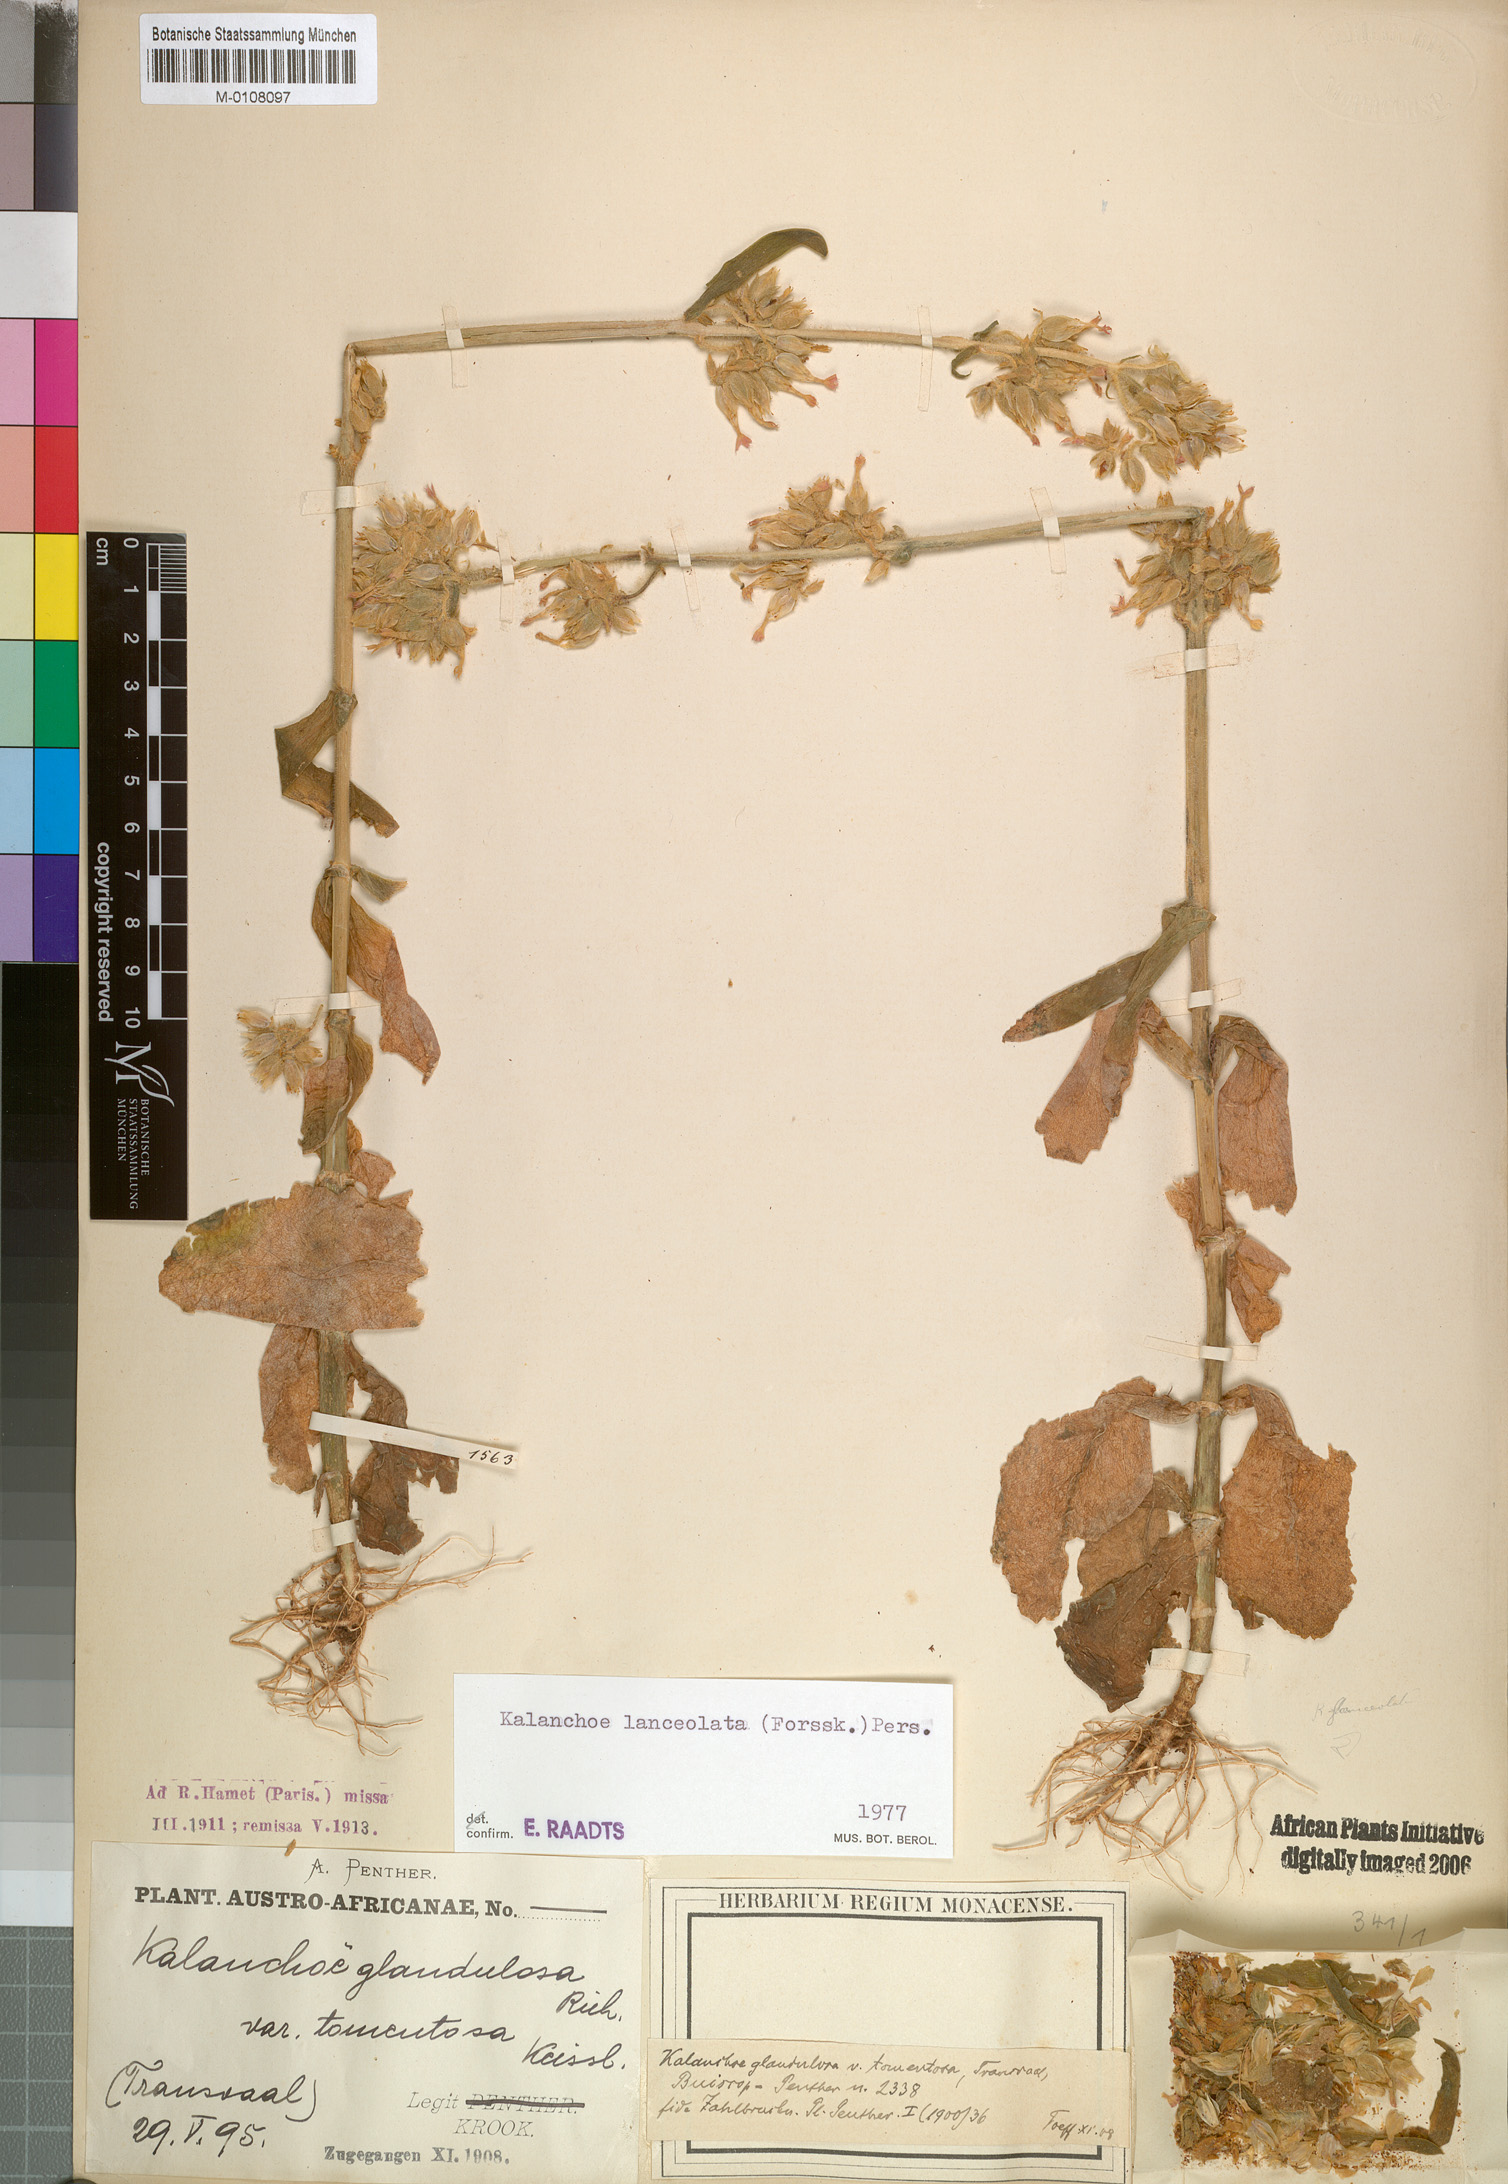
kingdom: Plantae
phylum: Tracheophyta
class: Magnoliopsida
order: Saxifragales
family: Crassulaceae
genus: Kalanchoe
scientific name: Kalanchoe lanceolata
